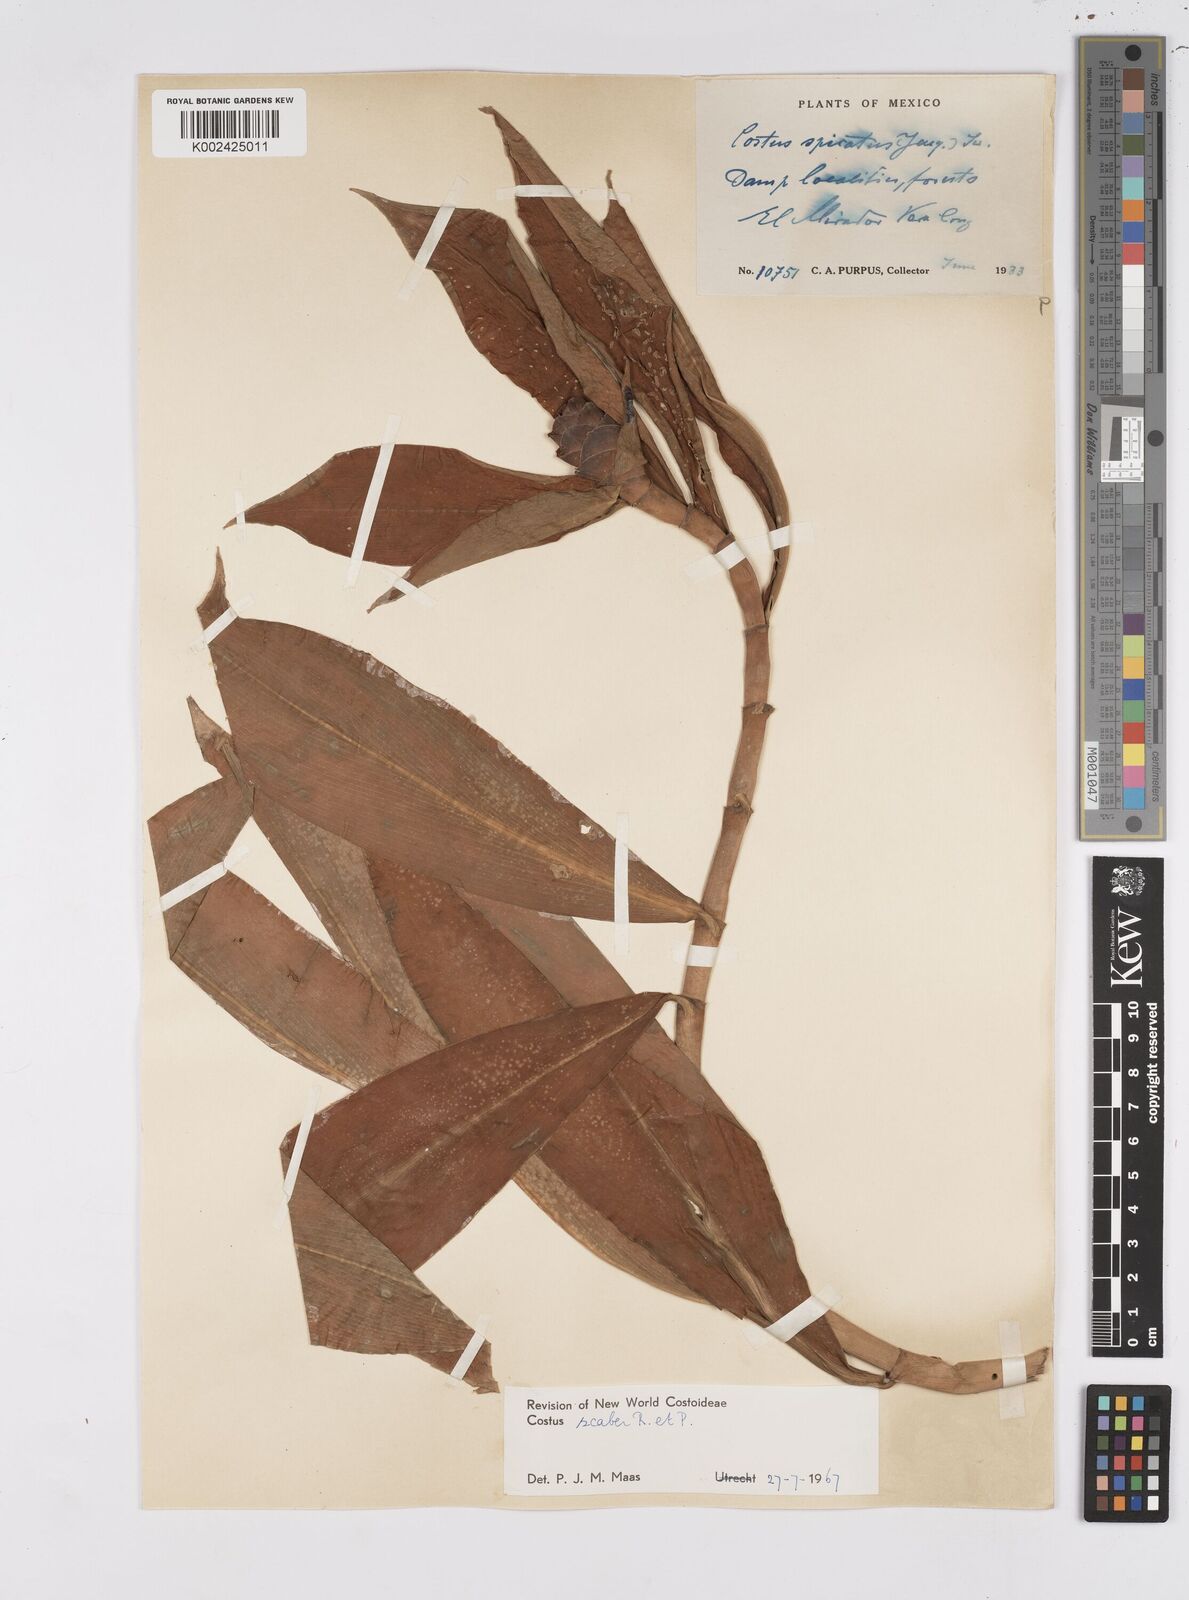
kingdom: Plantae
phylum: Tracheophyta
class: Liliopsida
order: Zingiberales
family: Costaceae
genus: Costus
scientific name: Costus scaber
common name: Spiral head ginger
